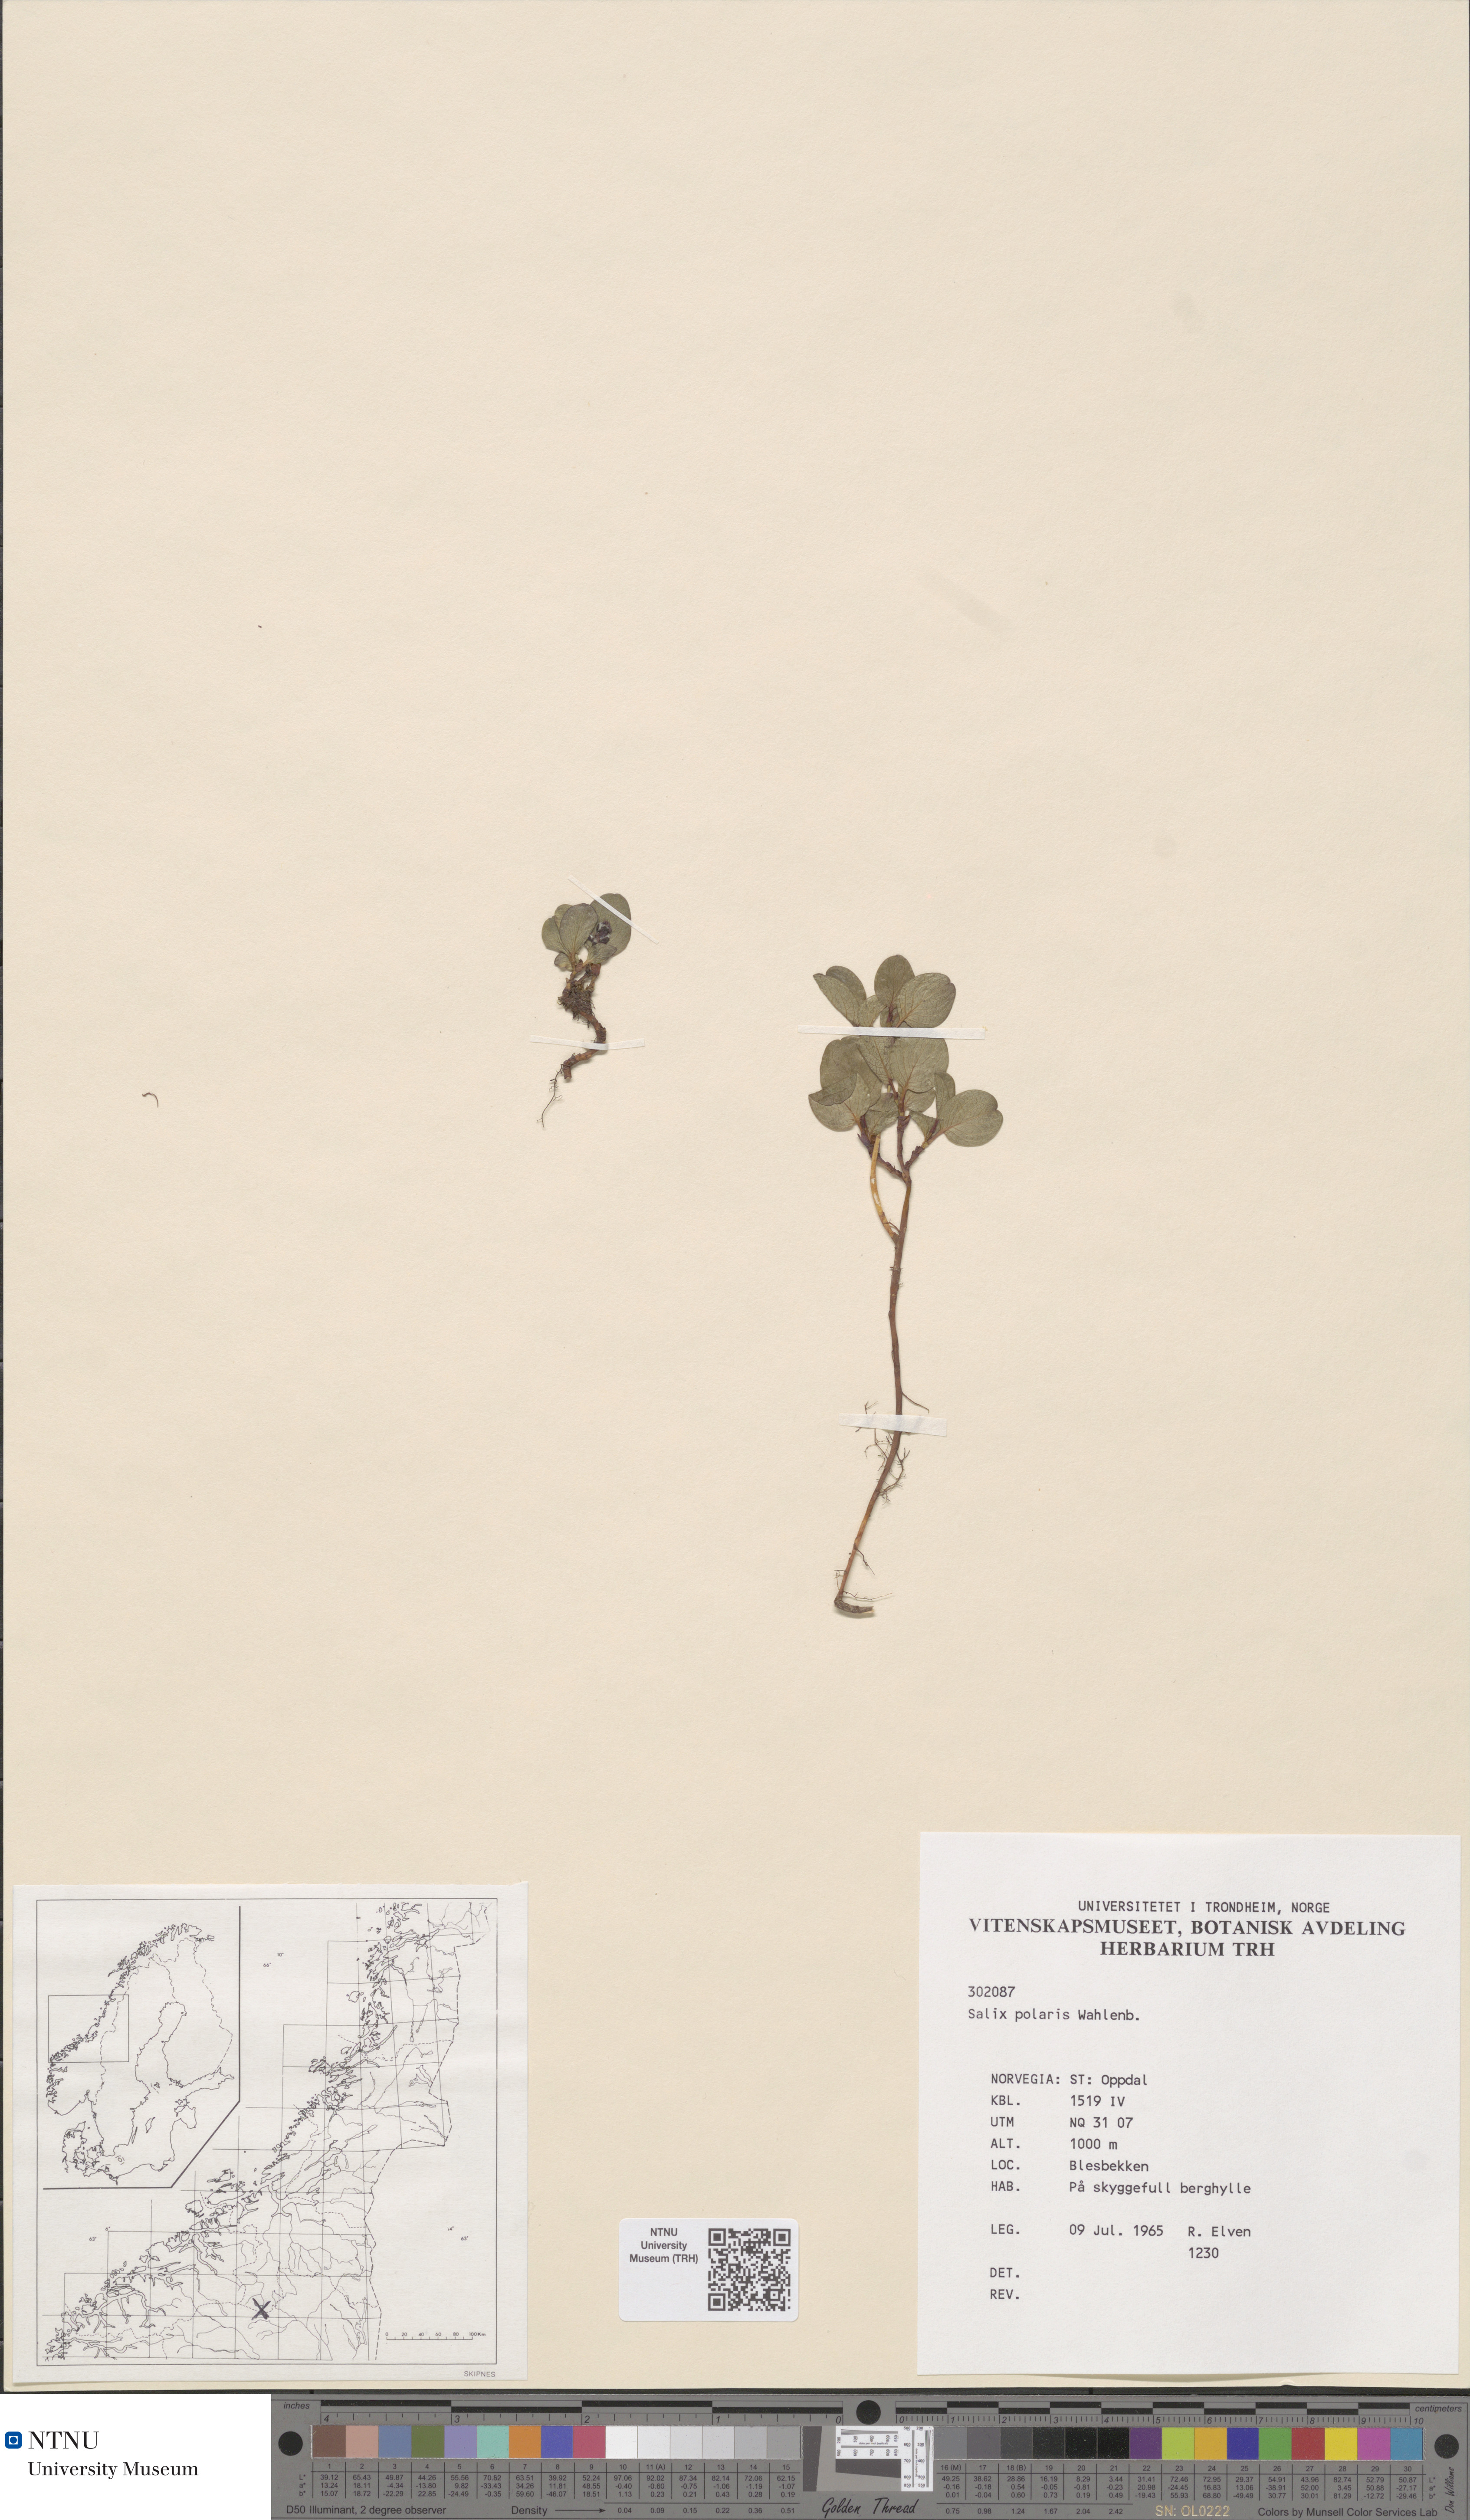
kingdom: Plantae
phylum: Tracheophyta
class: Magnoliopsida
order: Malpighiales
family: Salicaceae
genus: Salix
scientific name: Salix polaris
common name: Polar willow
